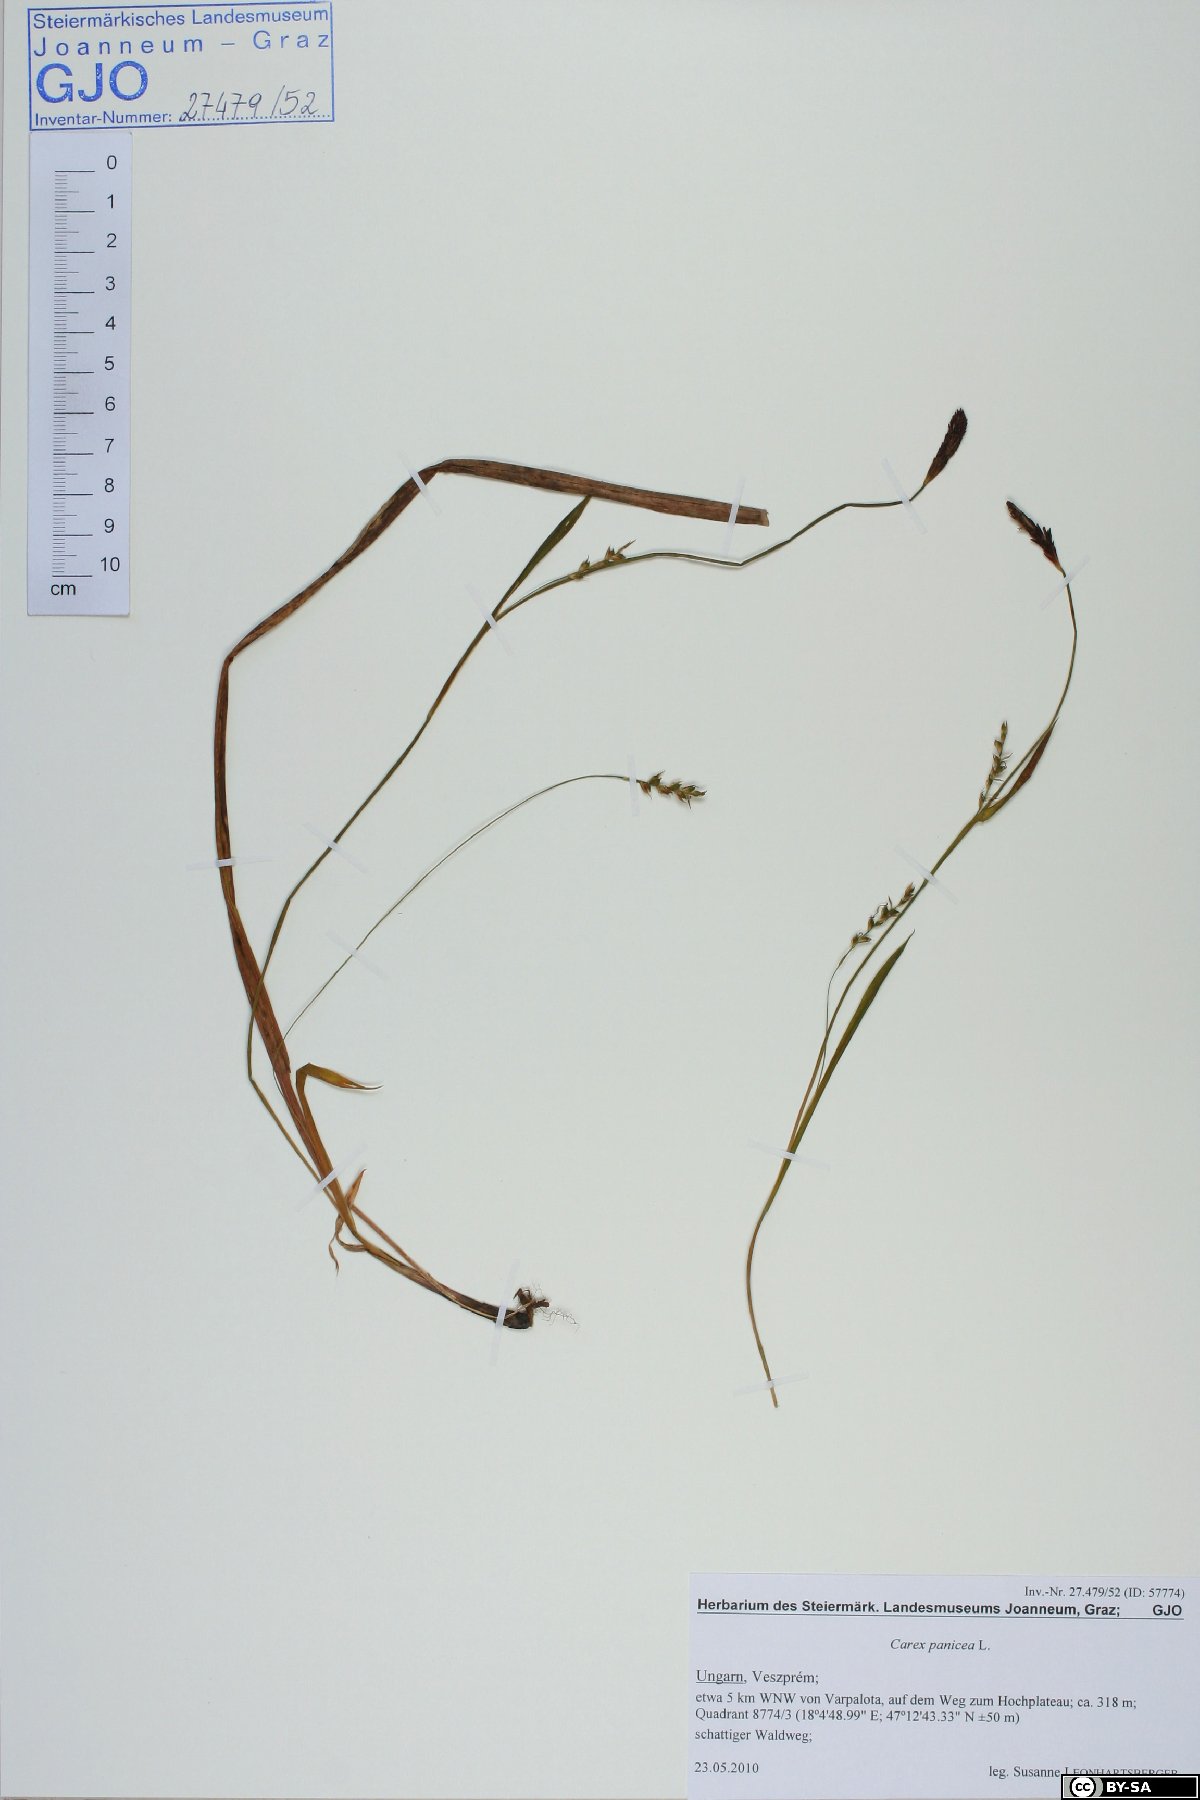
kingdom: Plantae
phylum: Tracheophyta
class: Liliopsida
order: Poales
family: Cyperaceae
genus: Carex
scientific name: Carex panicea
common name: Carnation sedge
